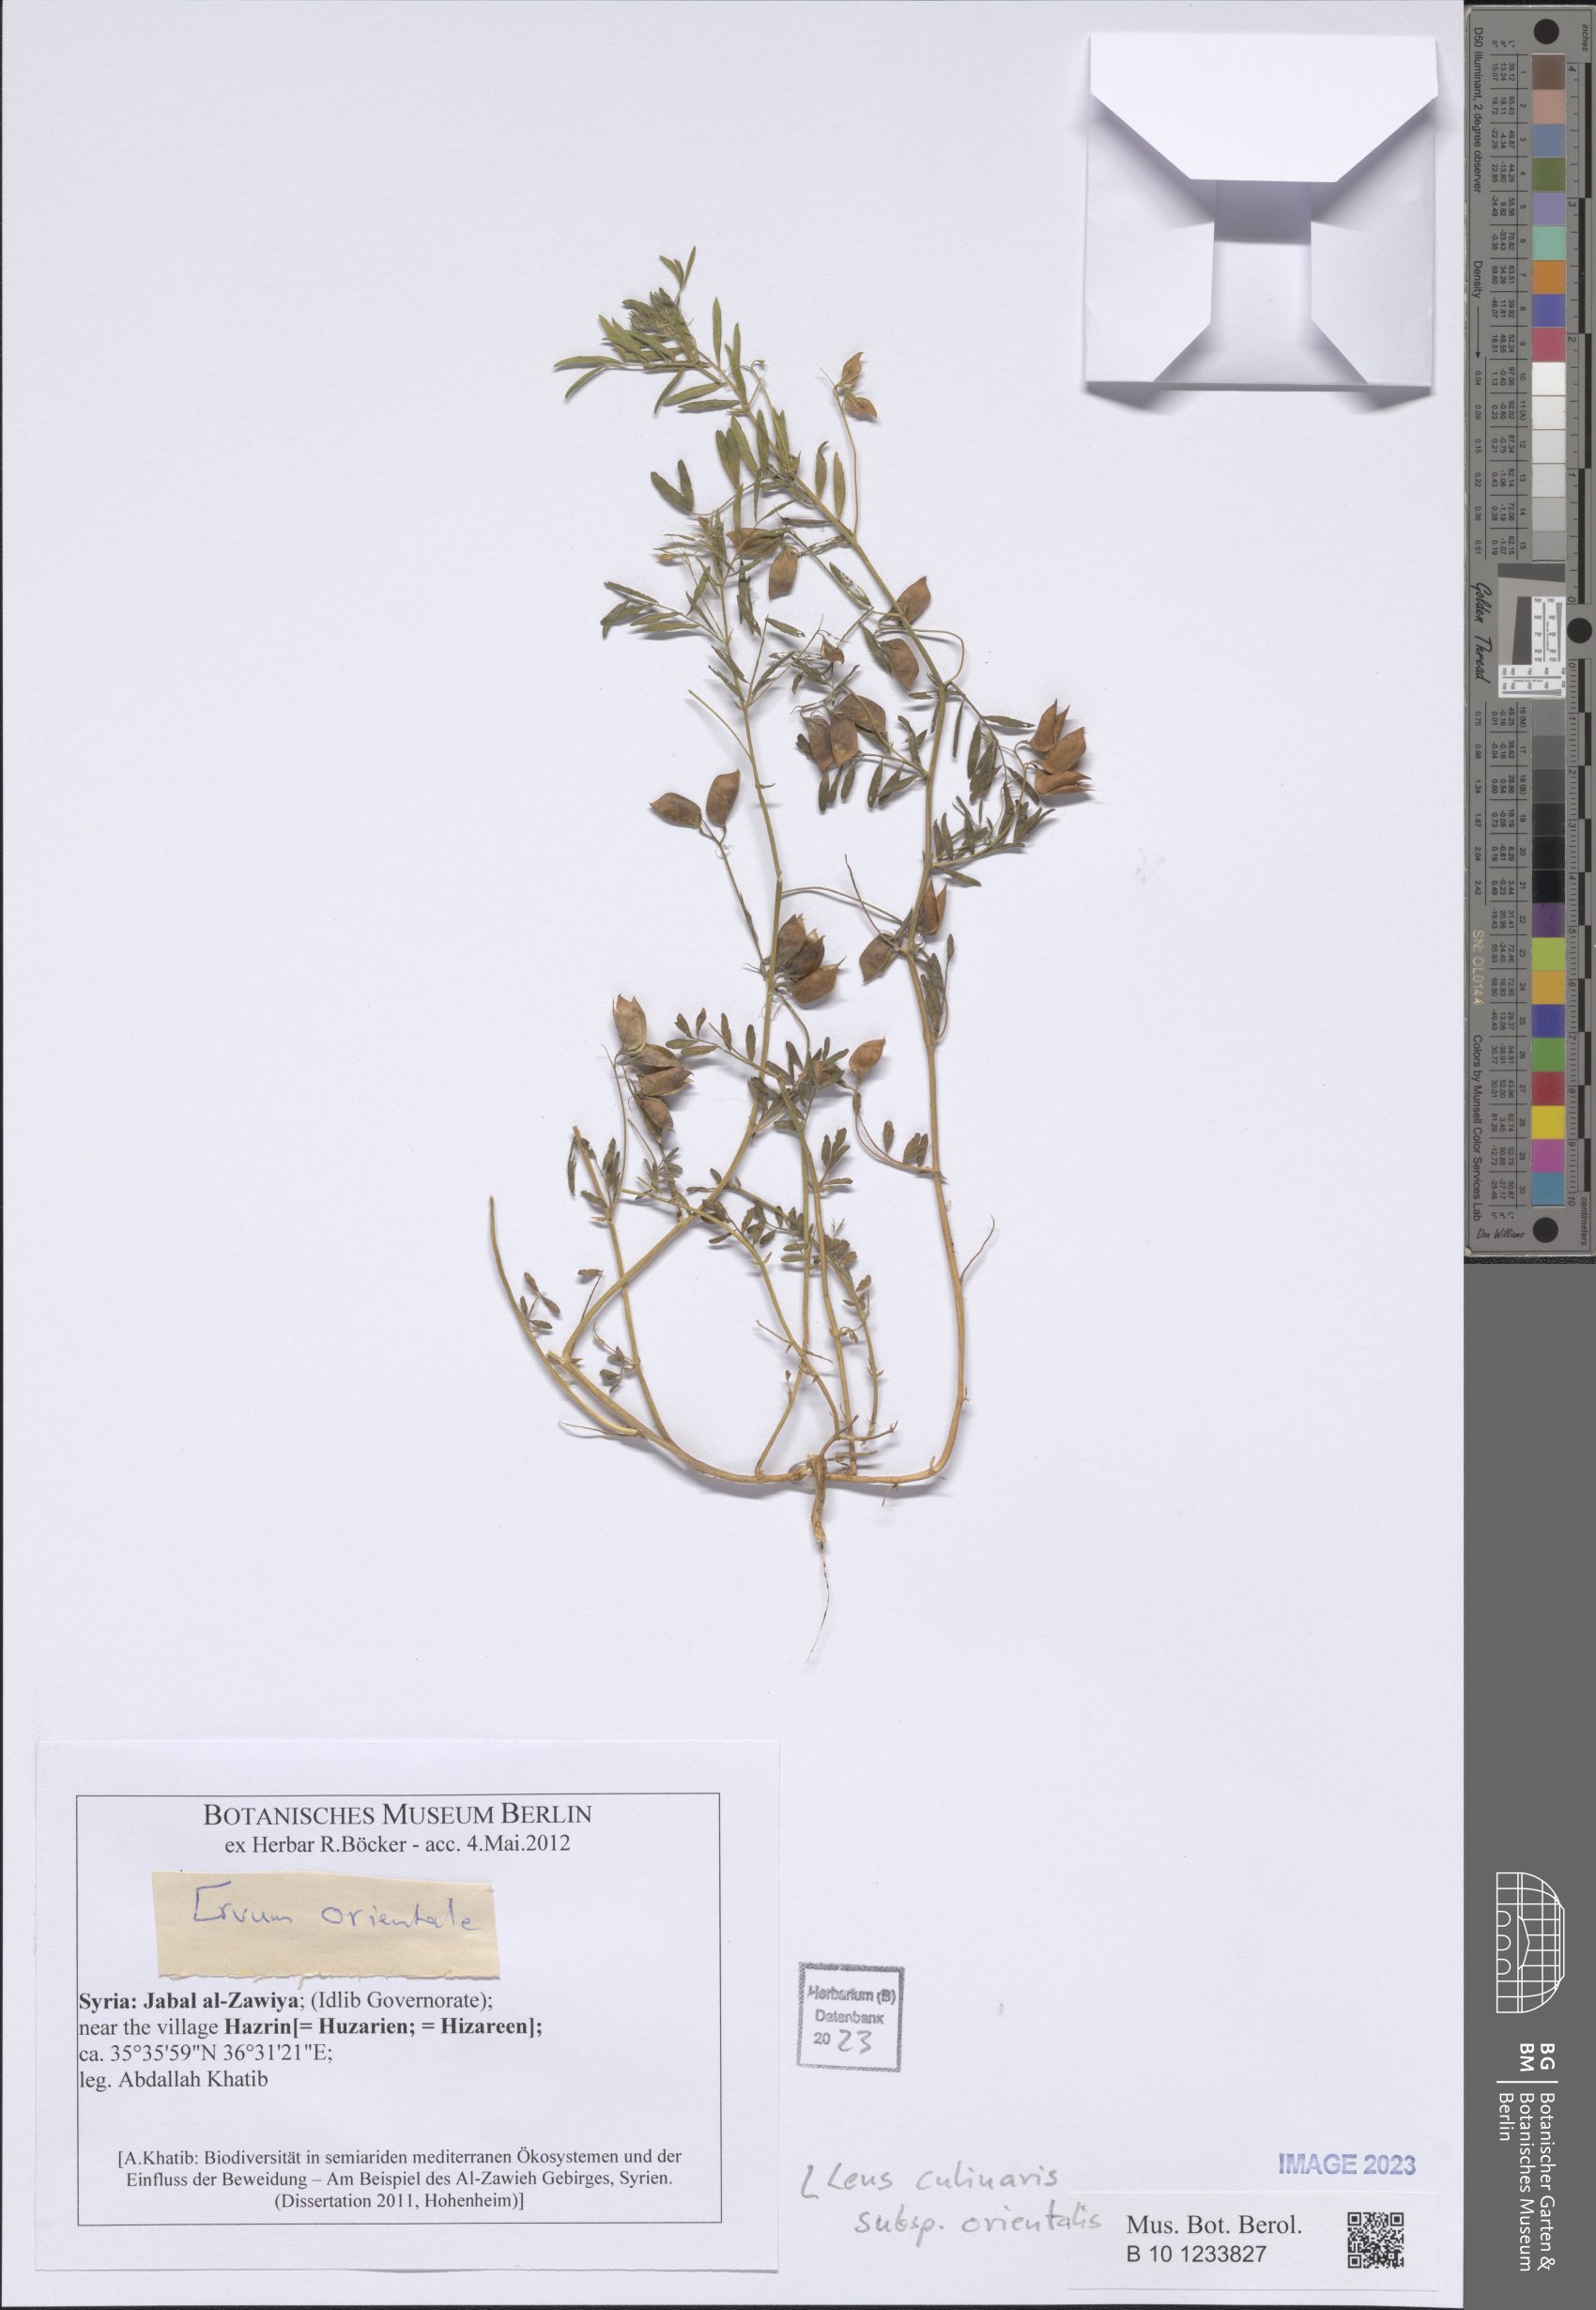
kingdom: Plantae
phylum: Tracheophyta
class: Magnoliopsida
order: Fabales
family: Fabaceae
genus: Vicia
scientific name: Vicia orientalis
